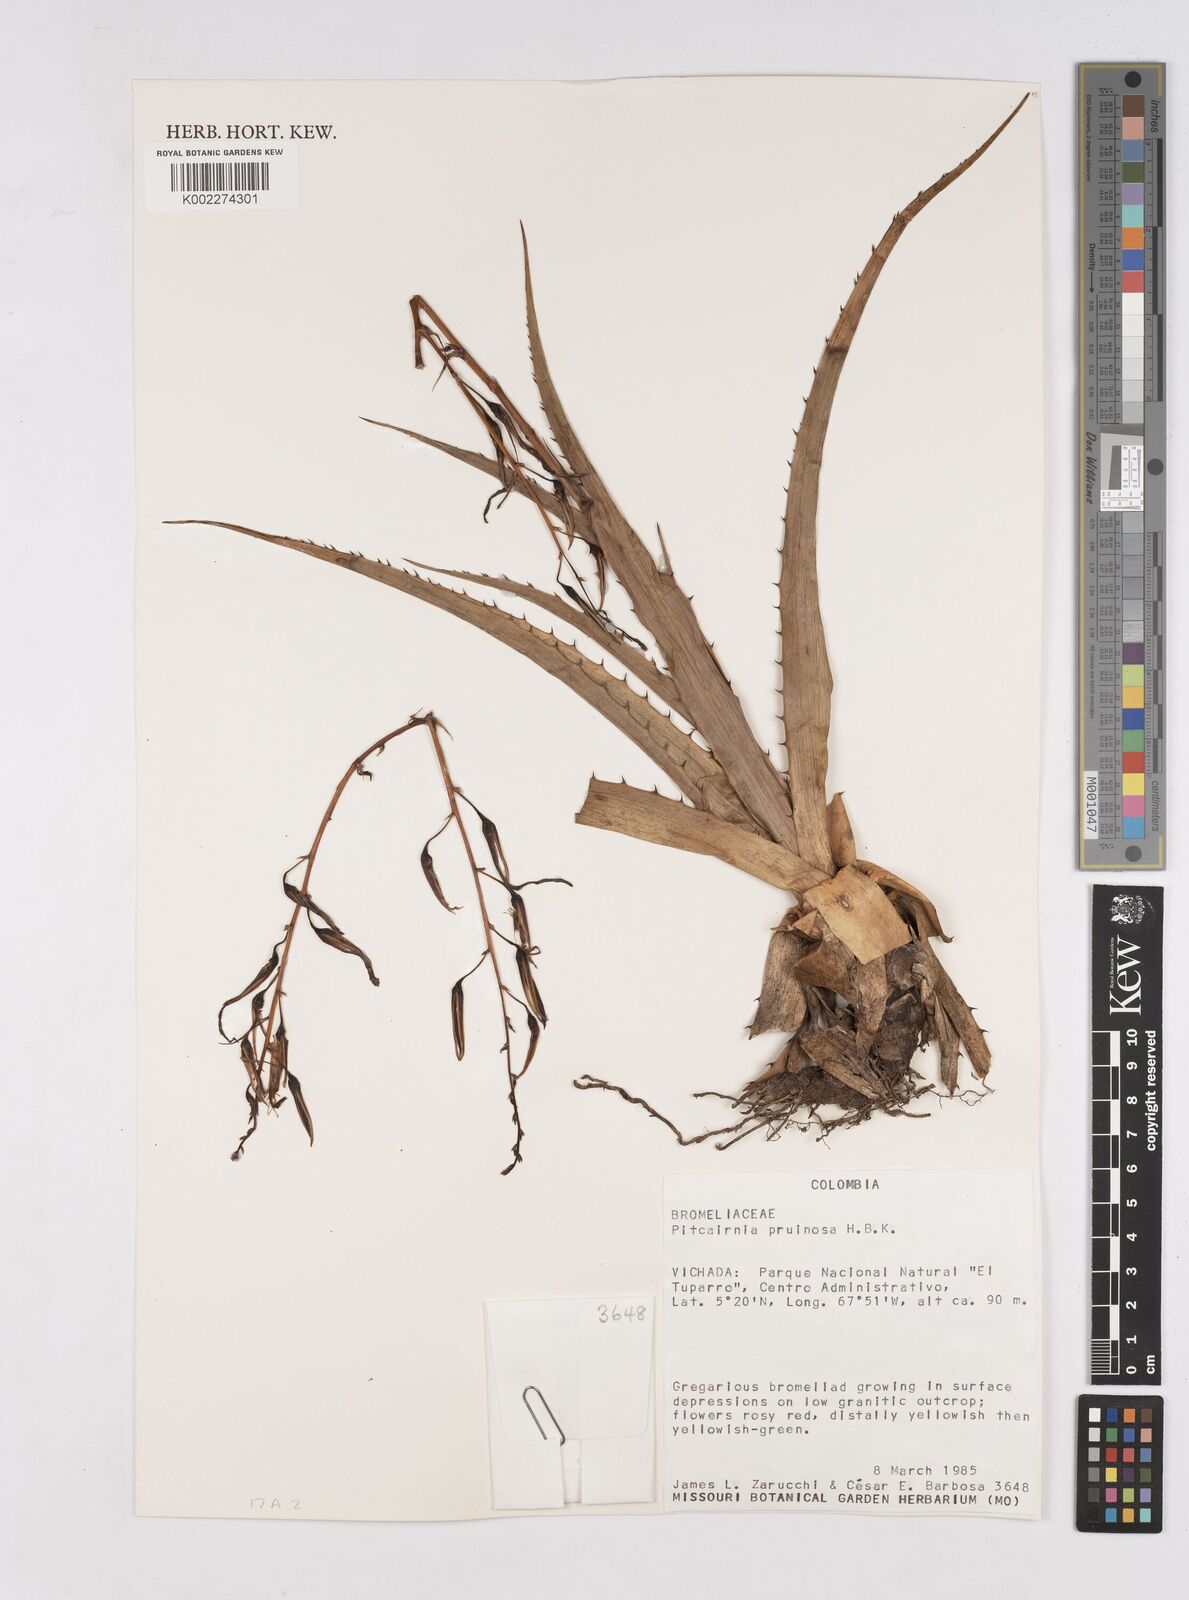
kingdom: Plantae
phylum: Tracheophyta
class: Liliopsida
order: Poales
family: Bromeliaceae
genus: Pitcairnia
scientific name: Pitcairnia pruinosa
